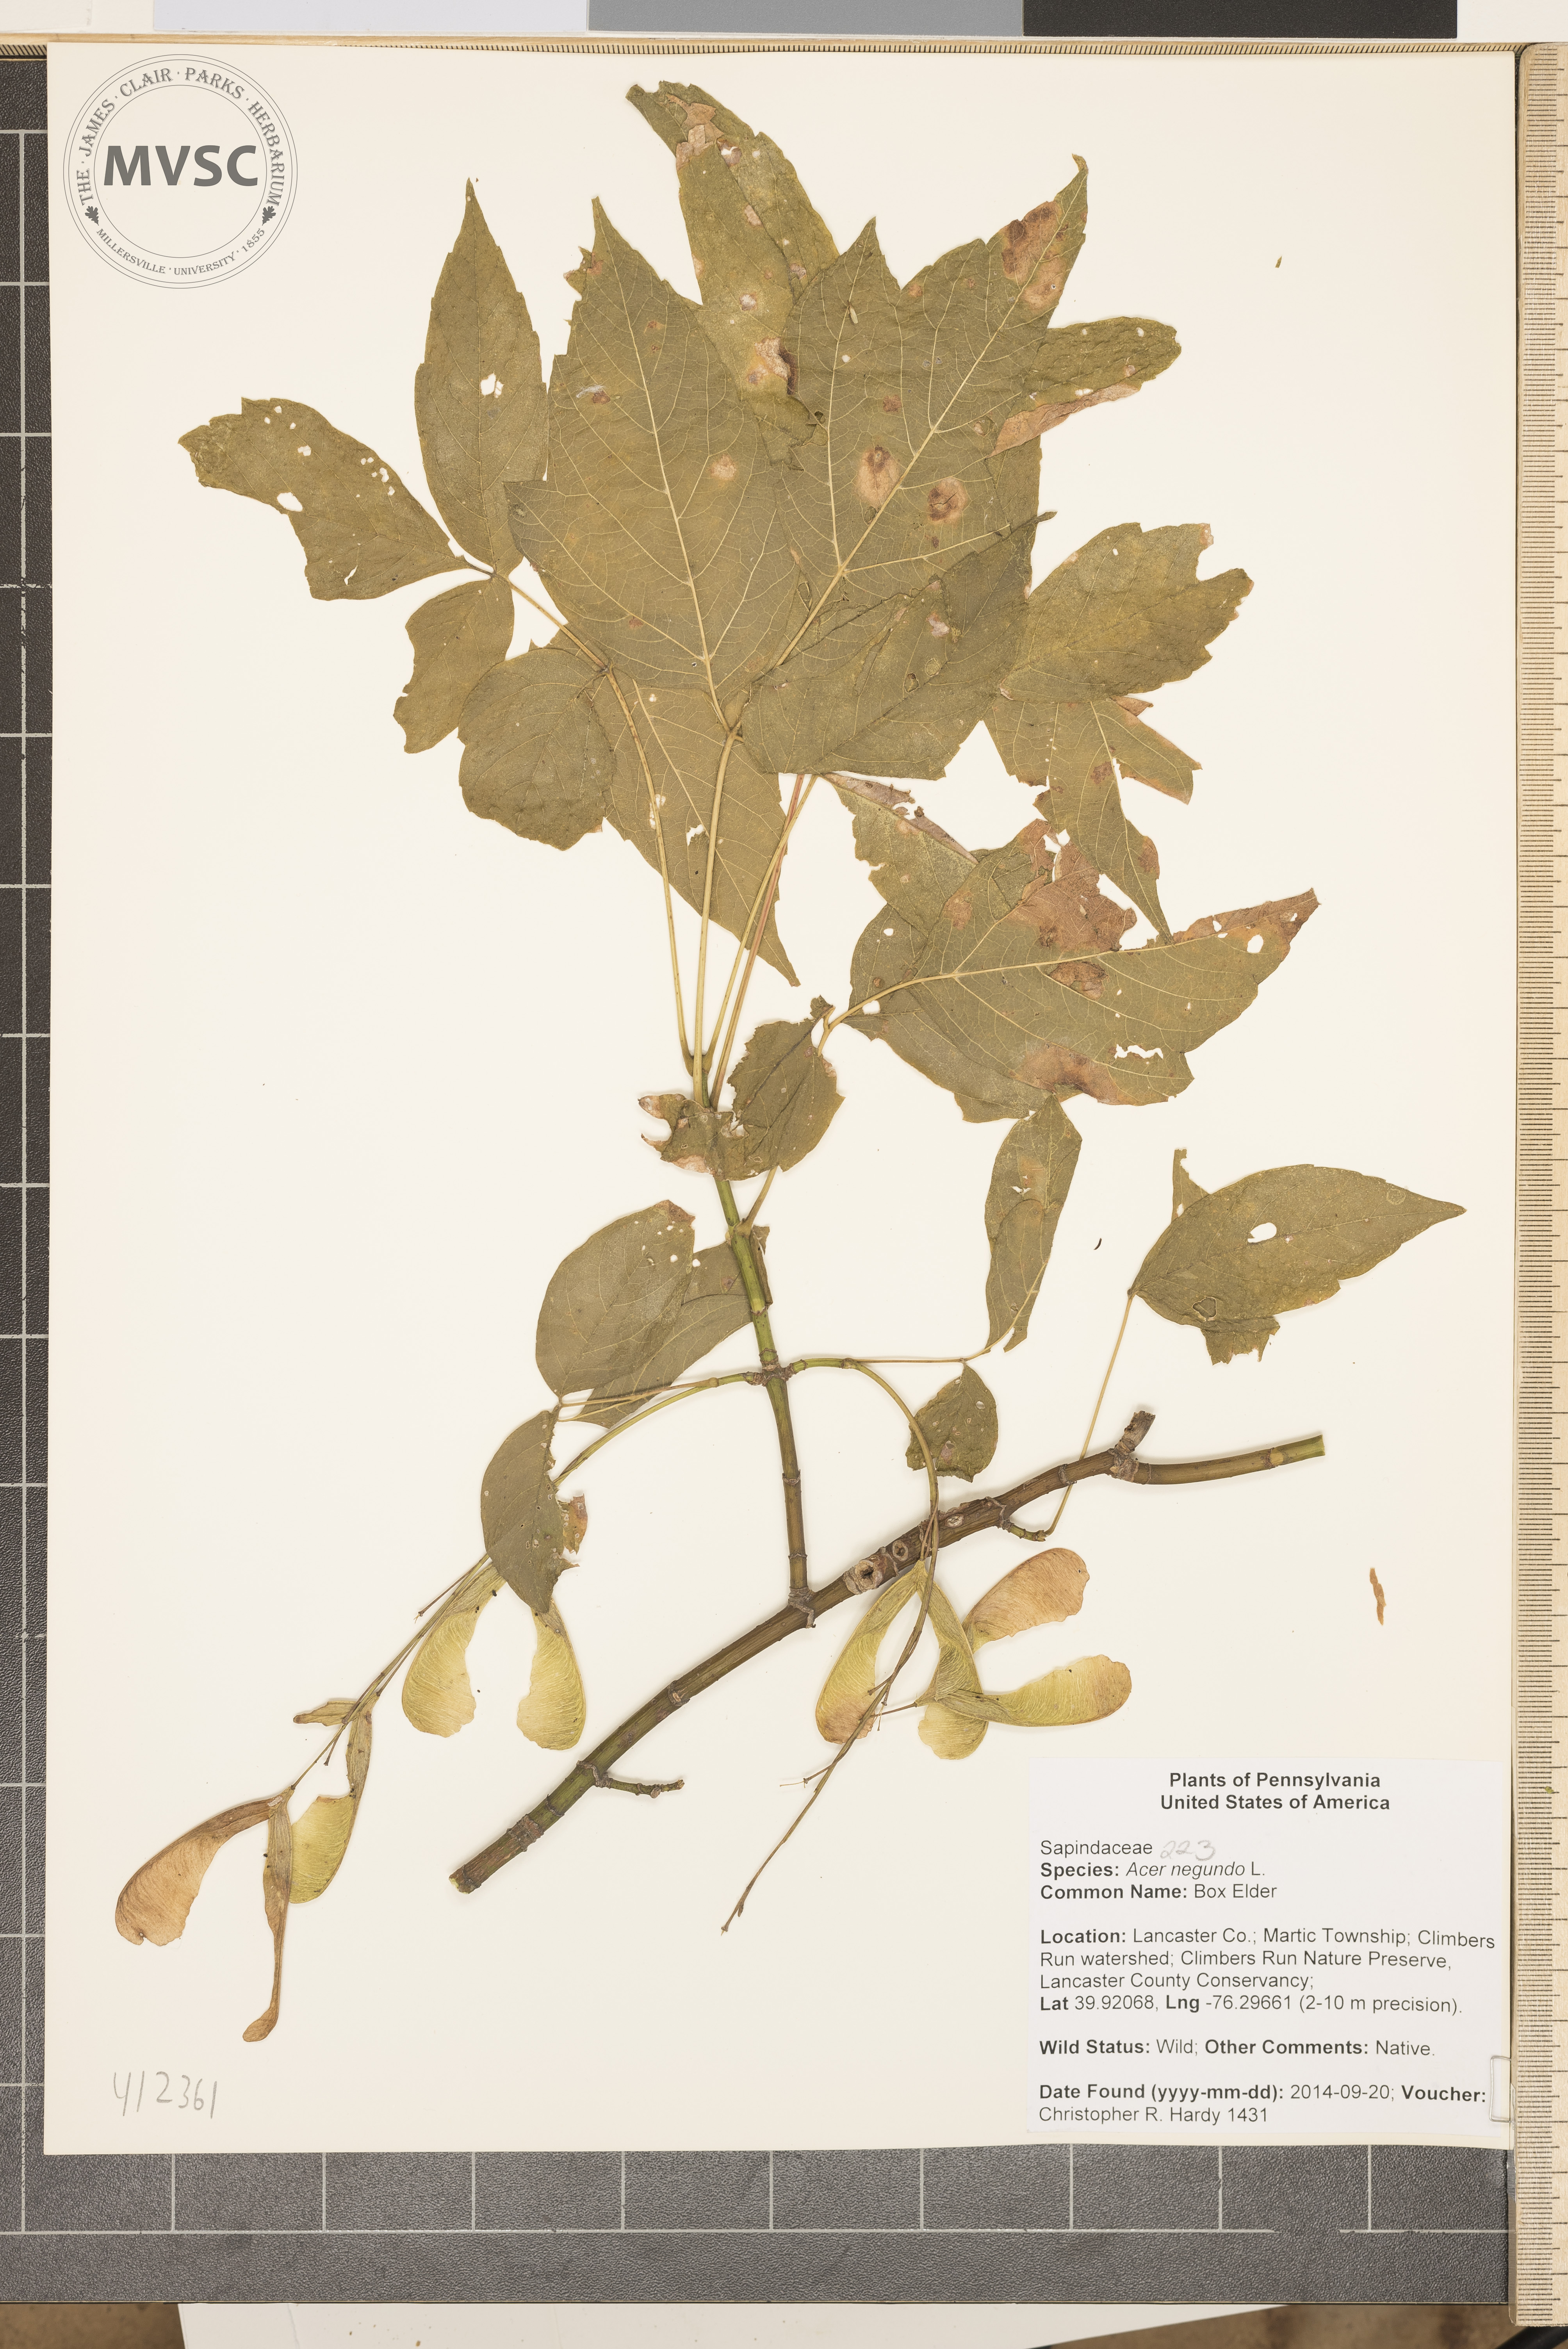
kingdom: Plantae
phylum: Tracheophyta
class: Magnoliopsida
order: Sapindales
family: Sapindaceae
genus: Acer
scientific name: Acer negundo
